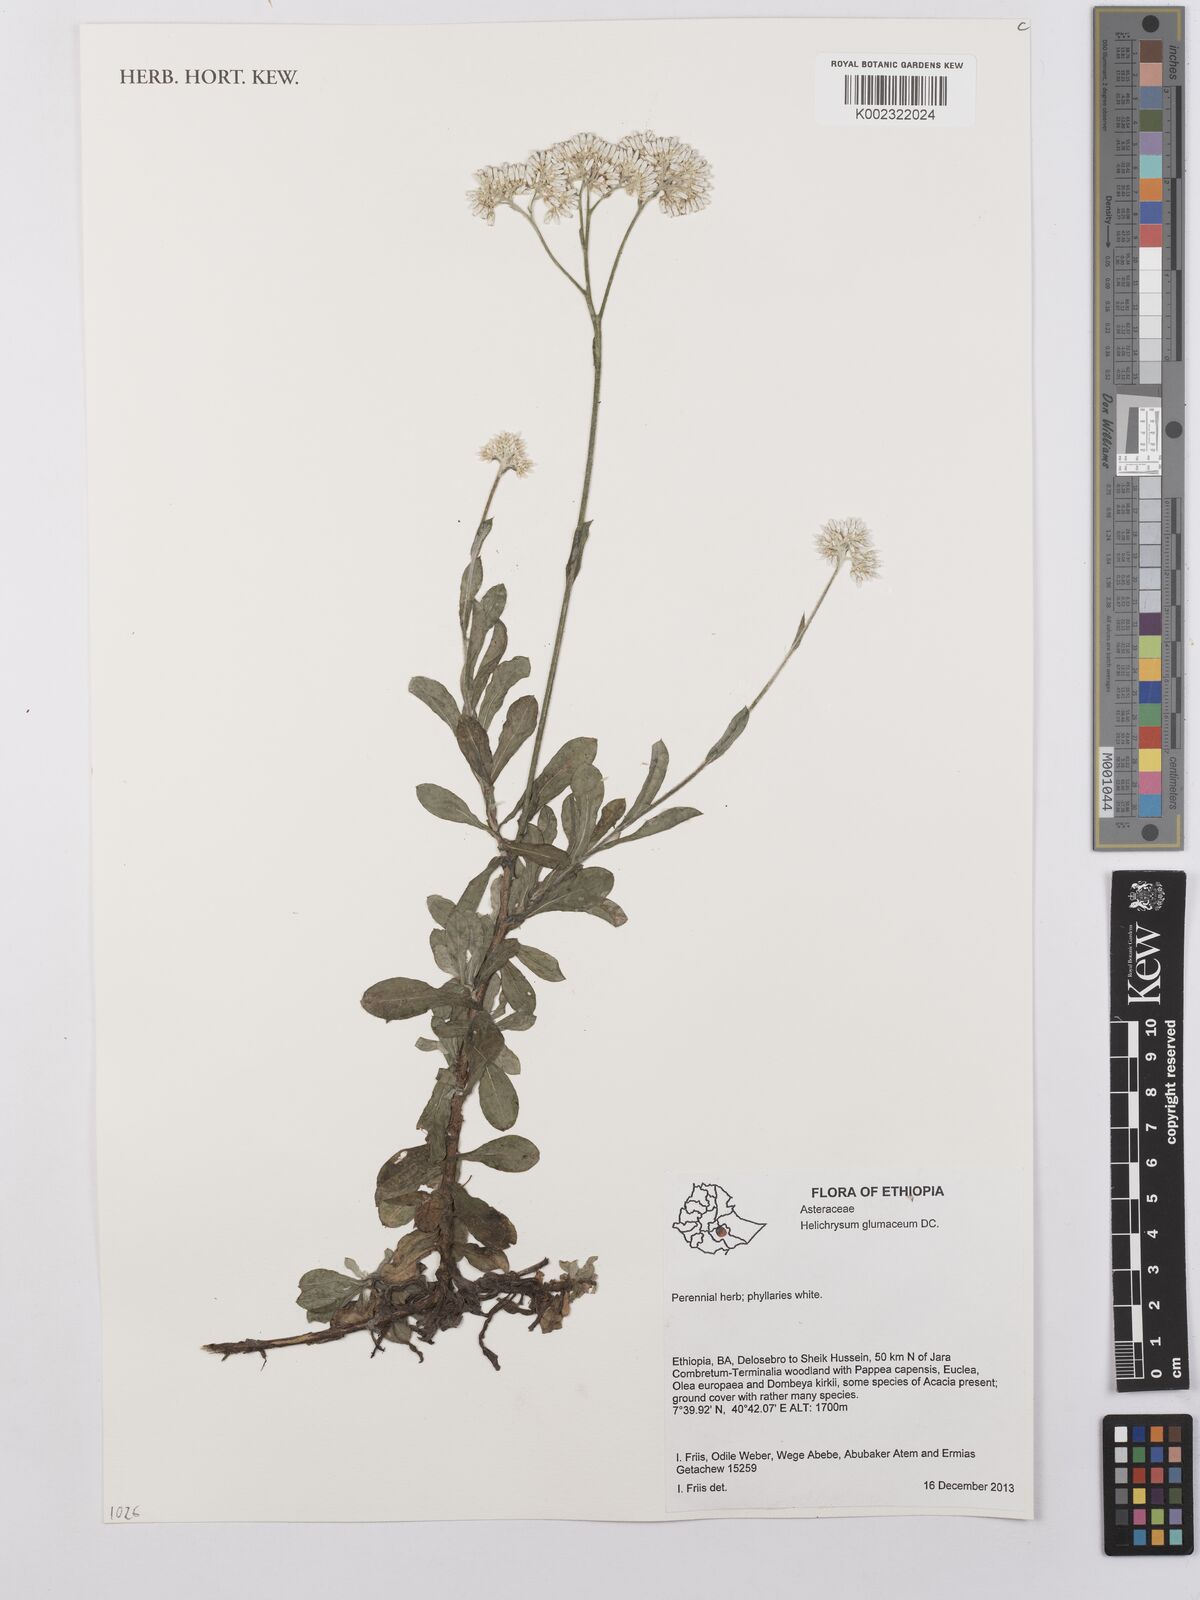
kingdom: Plantae
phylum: Tracheophyta
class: Magnoliopsida
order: Asterales
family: Asteraceae
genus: Helichrysum
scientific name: Helichrysum glumaceum
